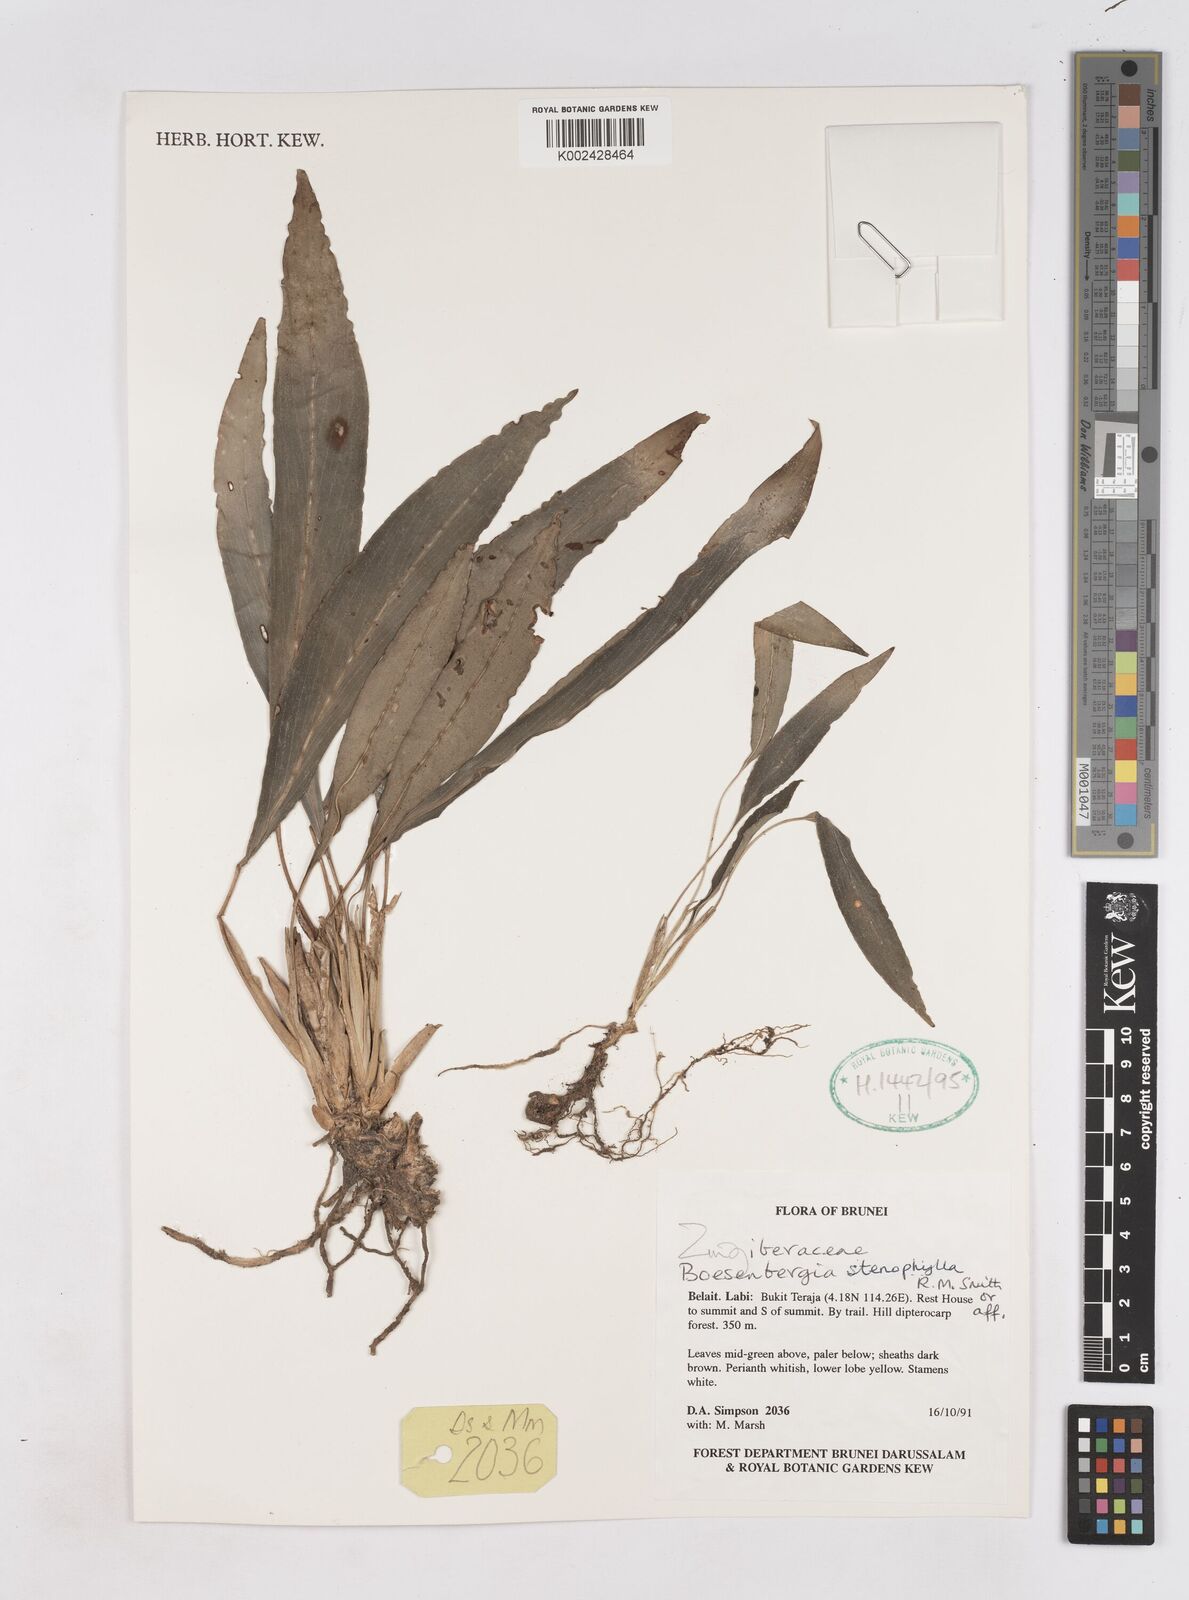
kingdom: Plantae
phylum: Tracheophyta
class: Liliopsida
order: Zingiberales
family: Zingiberaceae
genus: Boesenbergia
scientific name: Boesenbergia stenophylla
